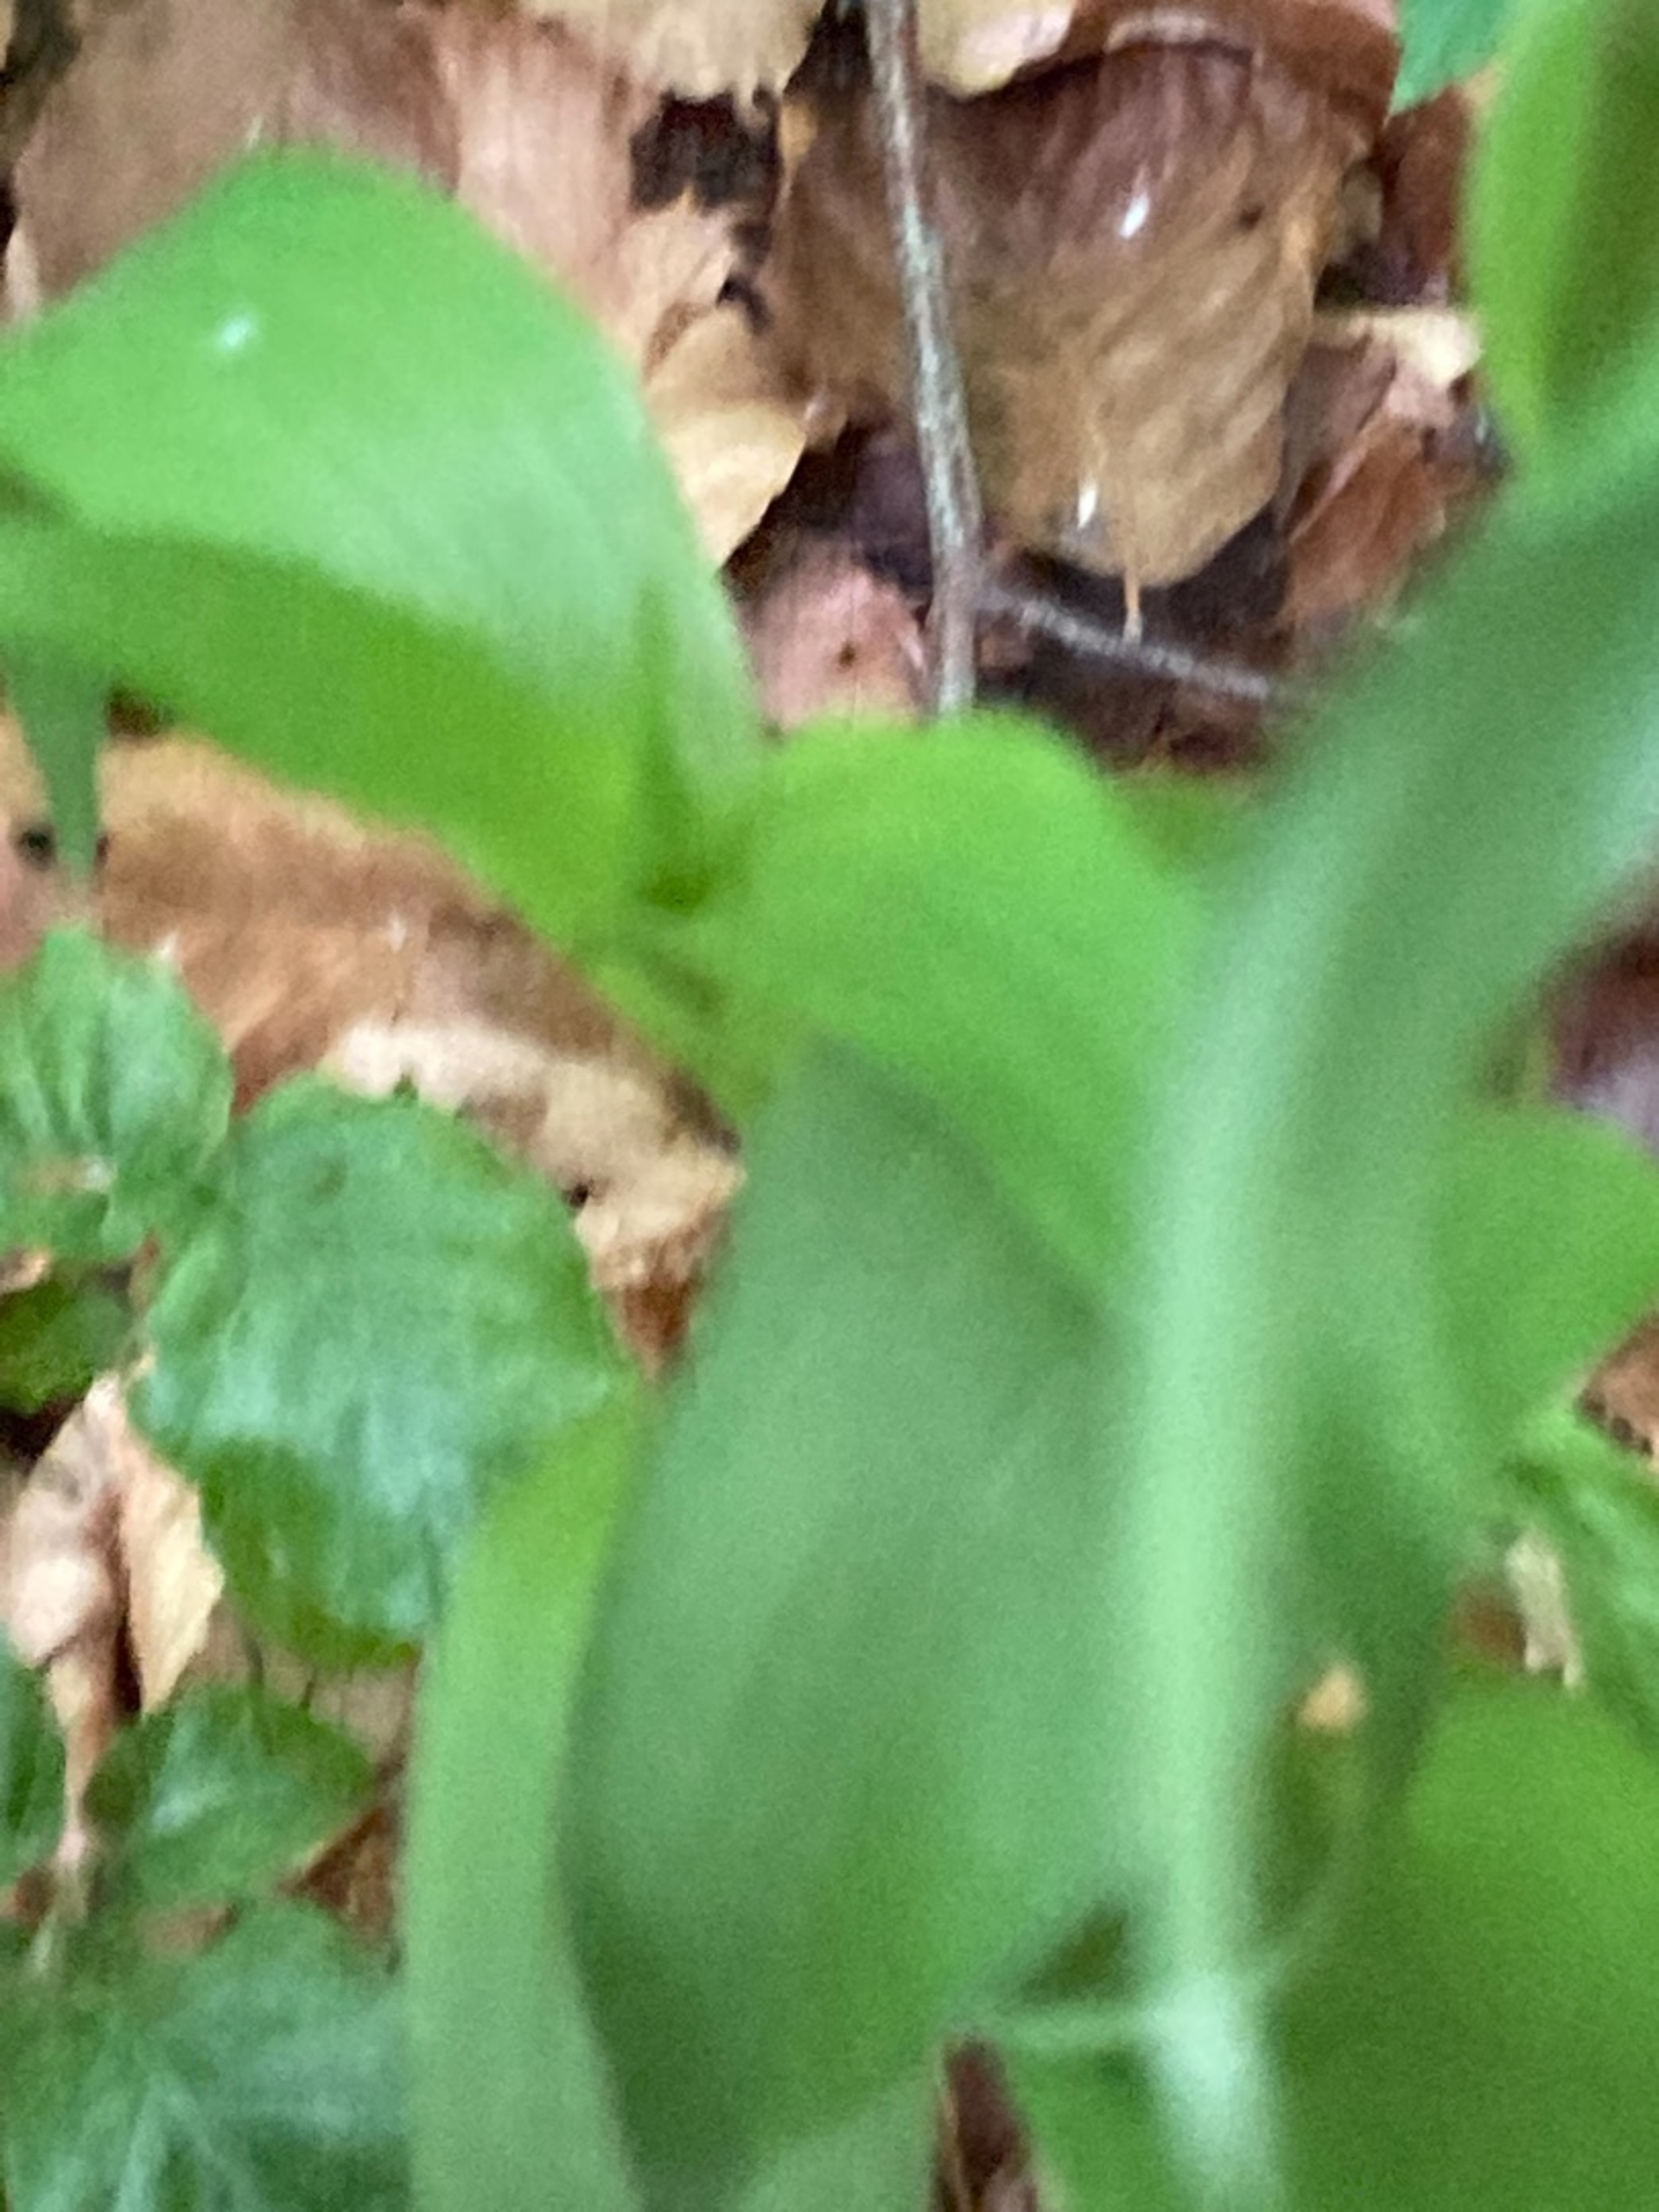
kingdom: Plantae
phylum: Tracheophyta
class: Liliopsida
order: Asparagales
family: Orchidaceae
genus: Epipactis
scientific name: Epipactis helleborine
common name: Skov-hullæbe
